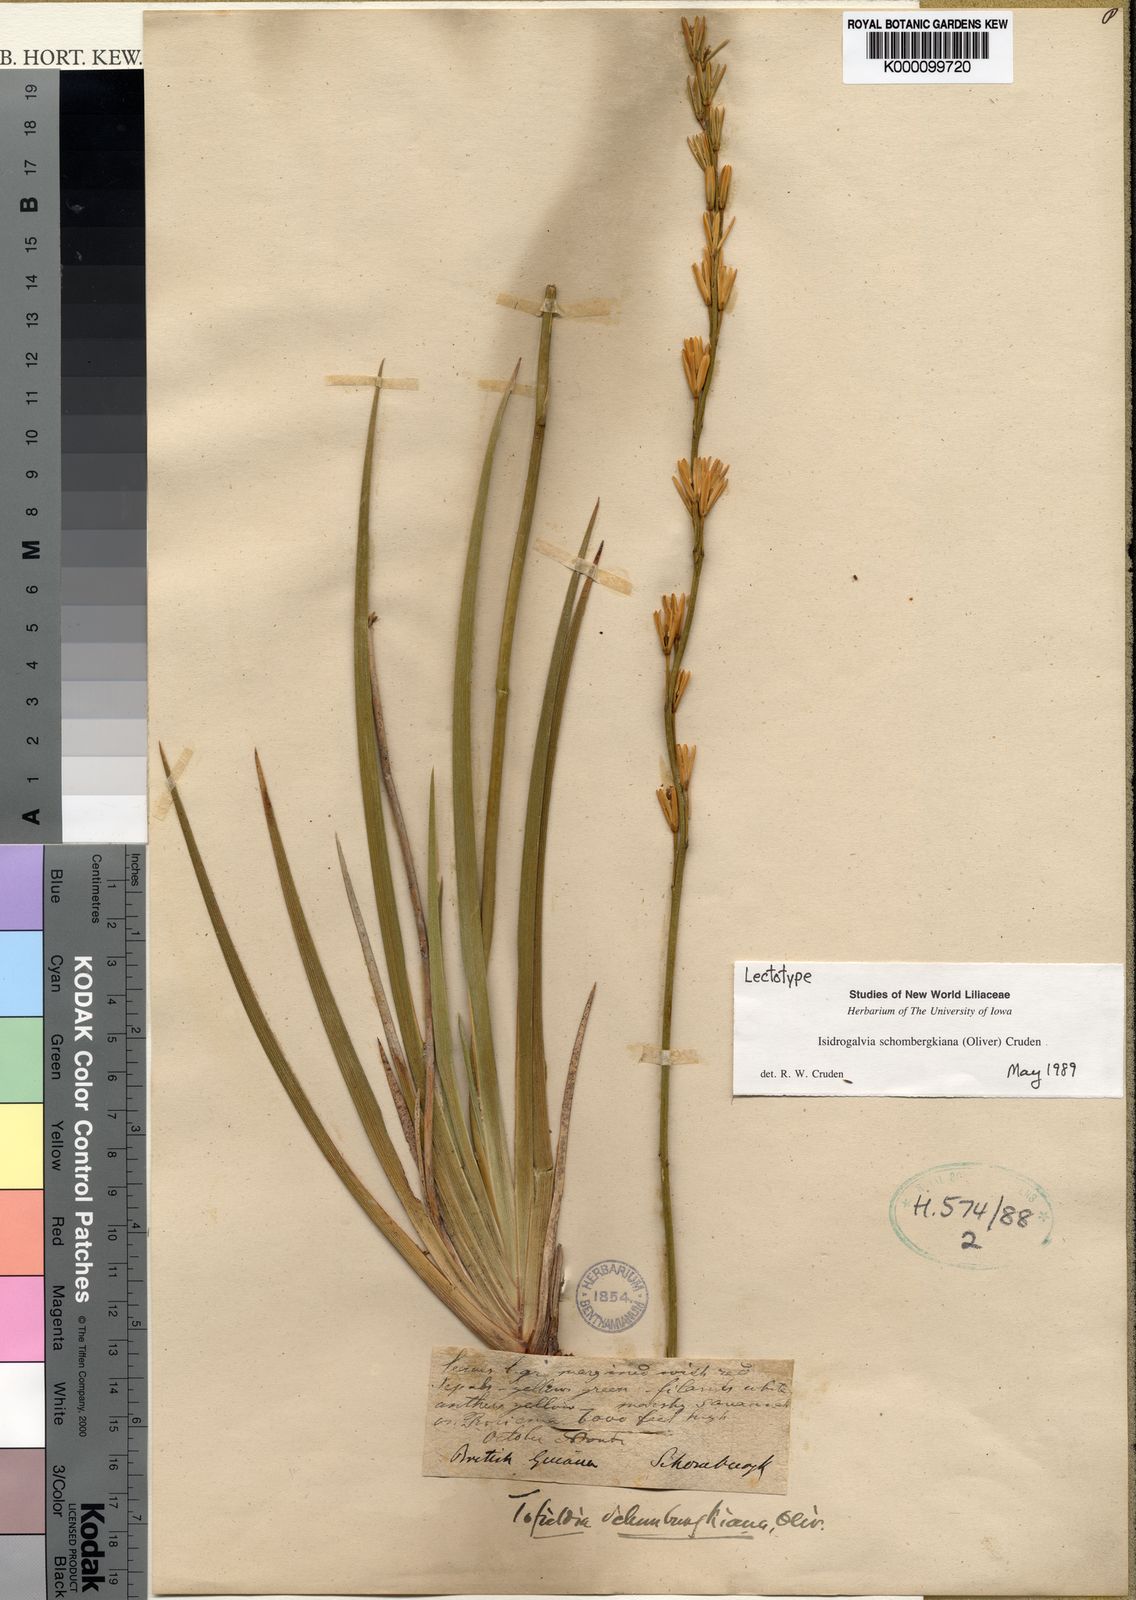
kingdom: Plantae
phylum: Tracheophyta
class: Liliopsida
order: Alismatales
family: Tofieldiaceae
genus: Tofieldia
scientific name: Tofieldia
